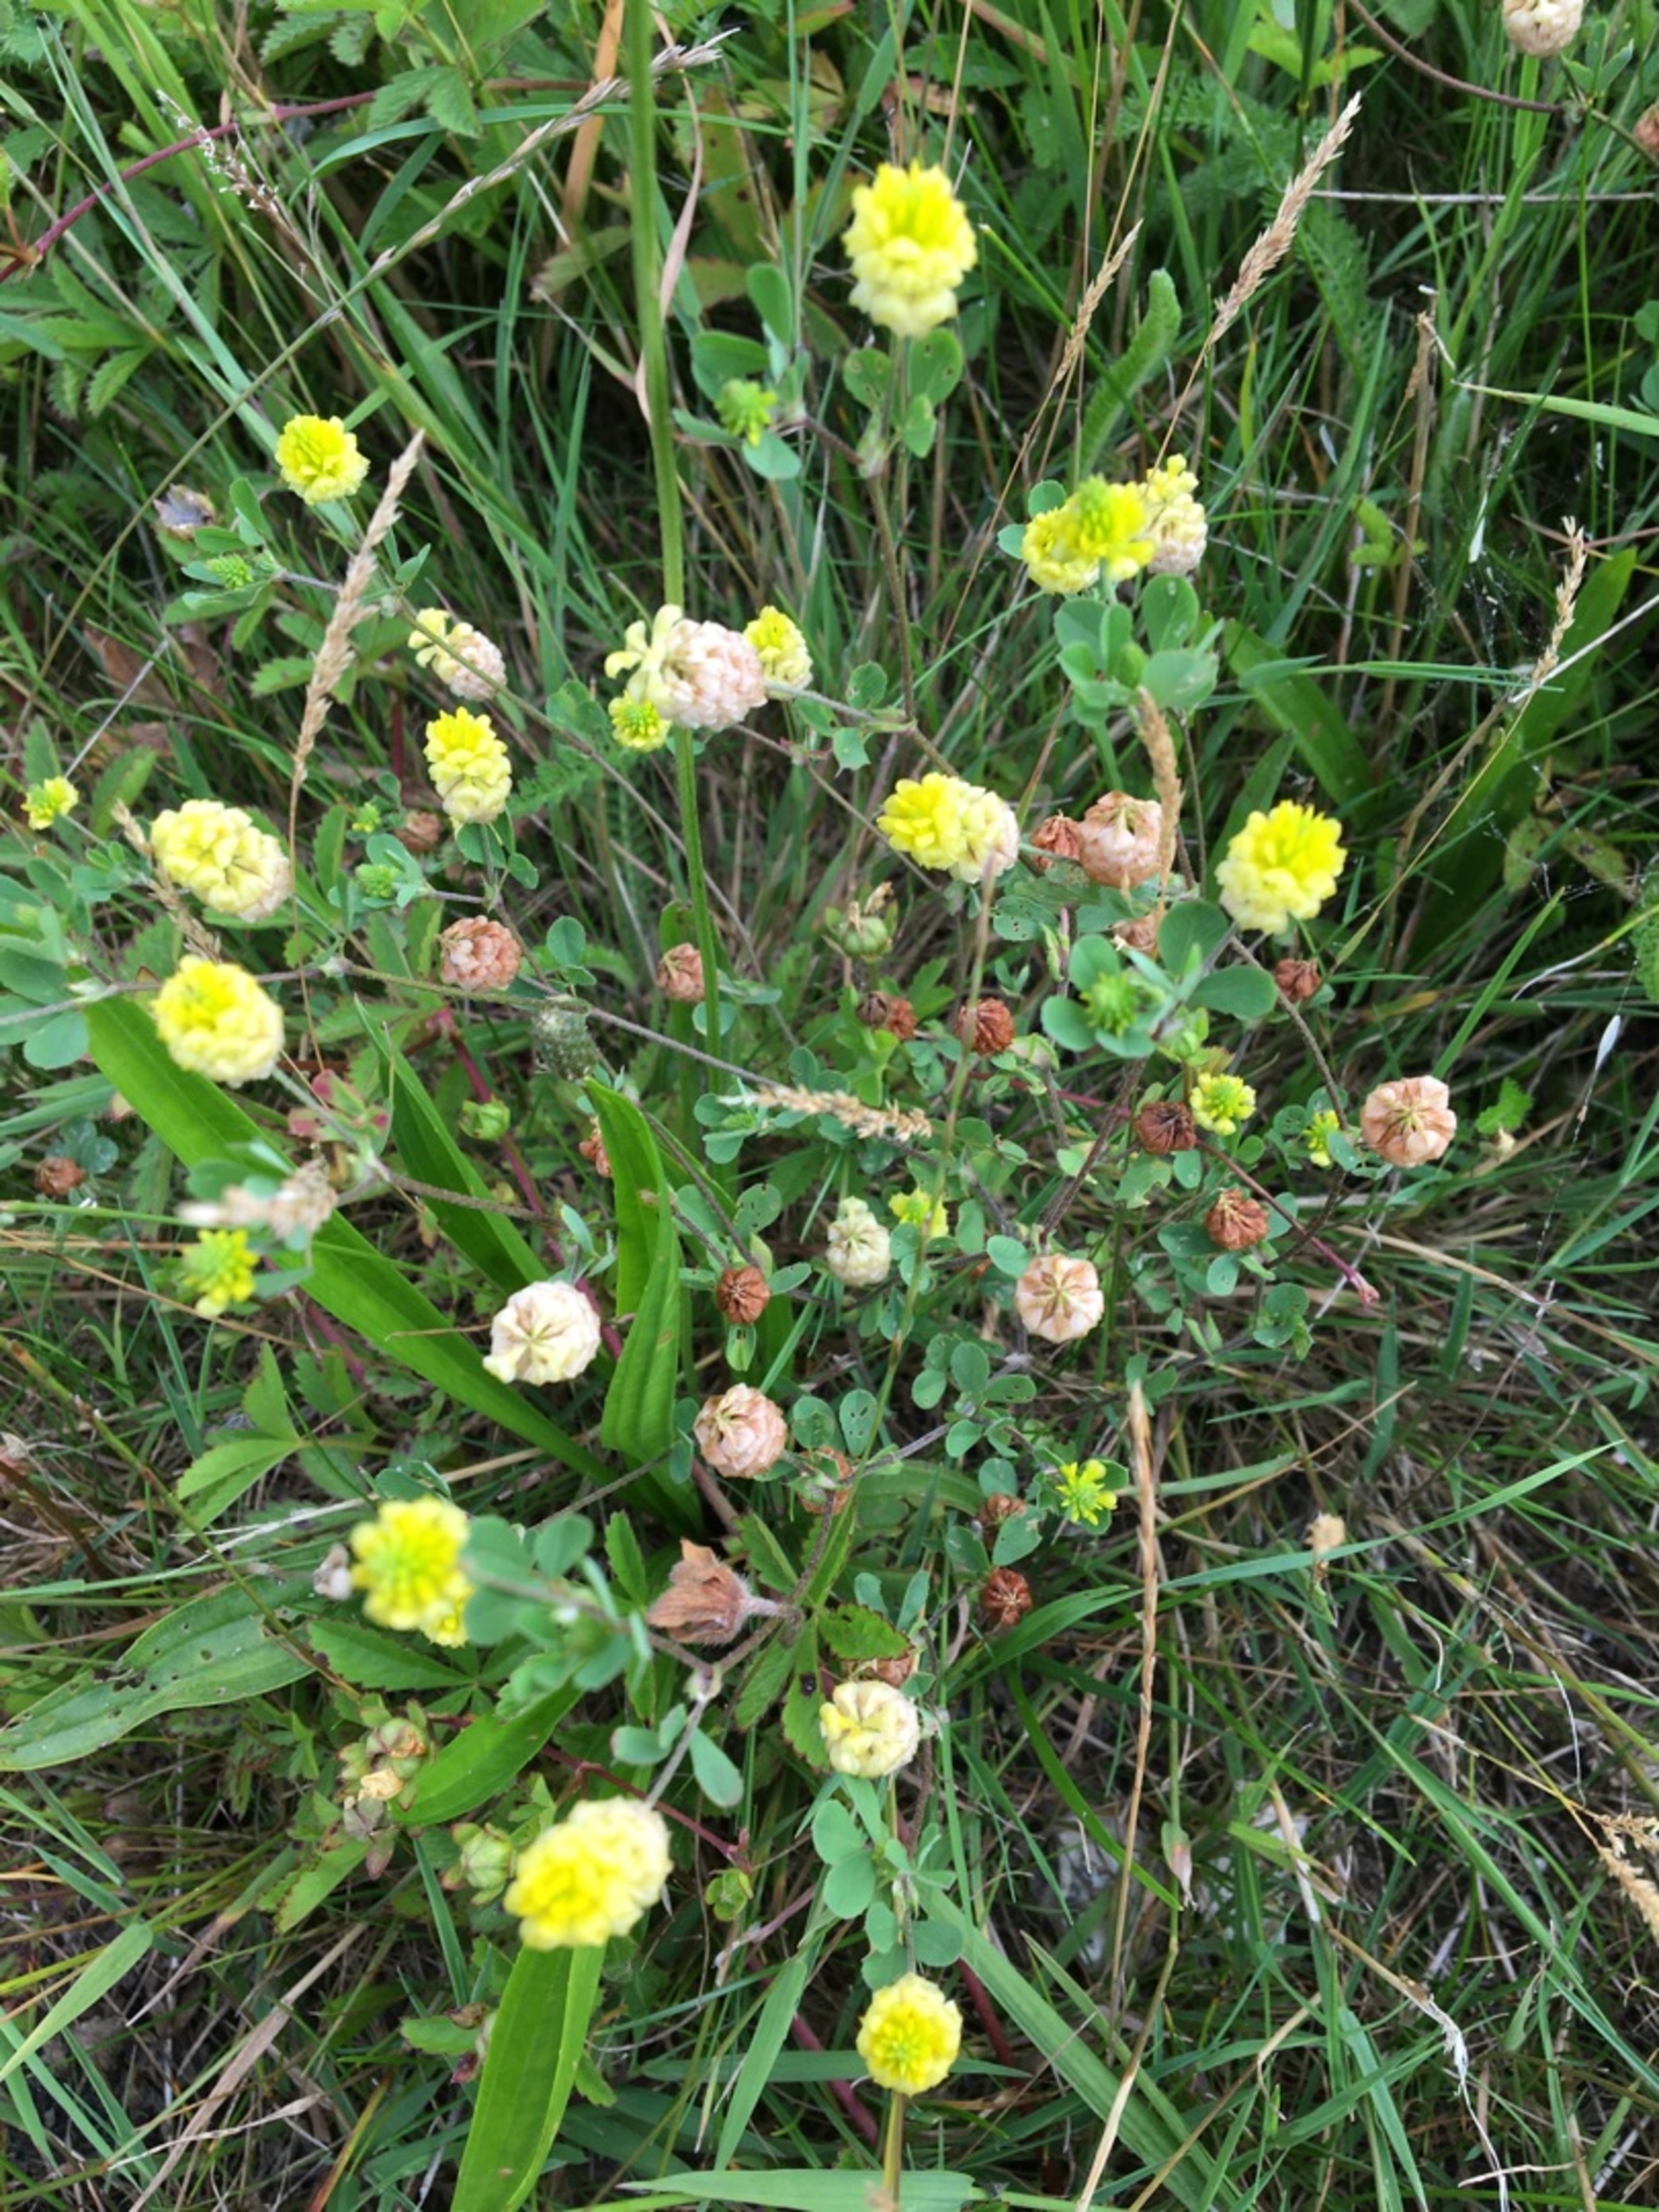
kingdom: Plantae
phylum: Tracheophyta
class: Magnoliopsida
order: Fabales
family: Fabaceae
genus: Trifolium
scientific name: Trifolium campestre
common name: Gul kløver
